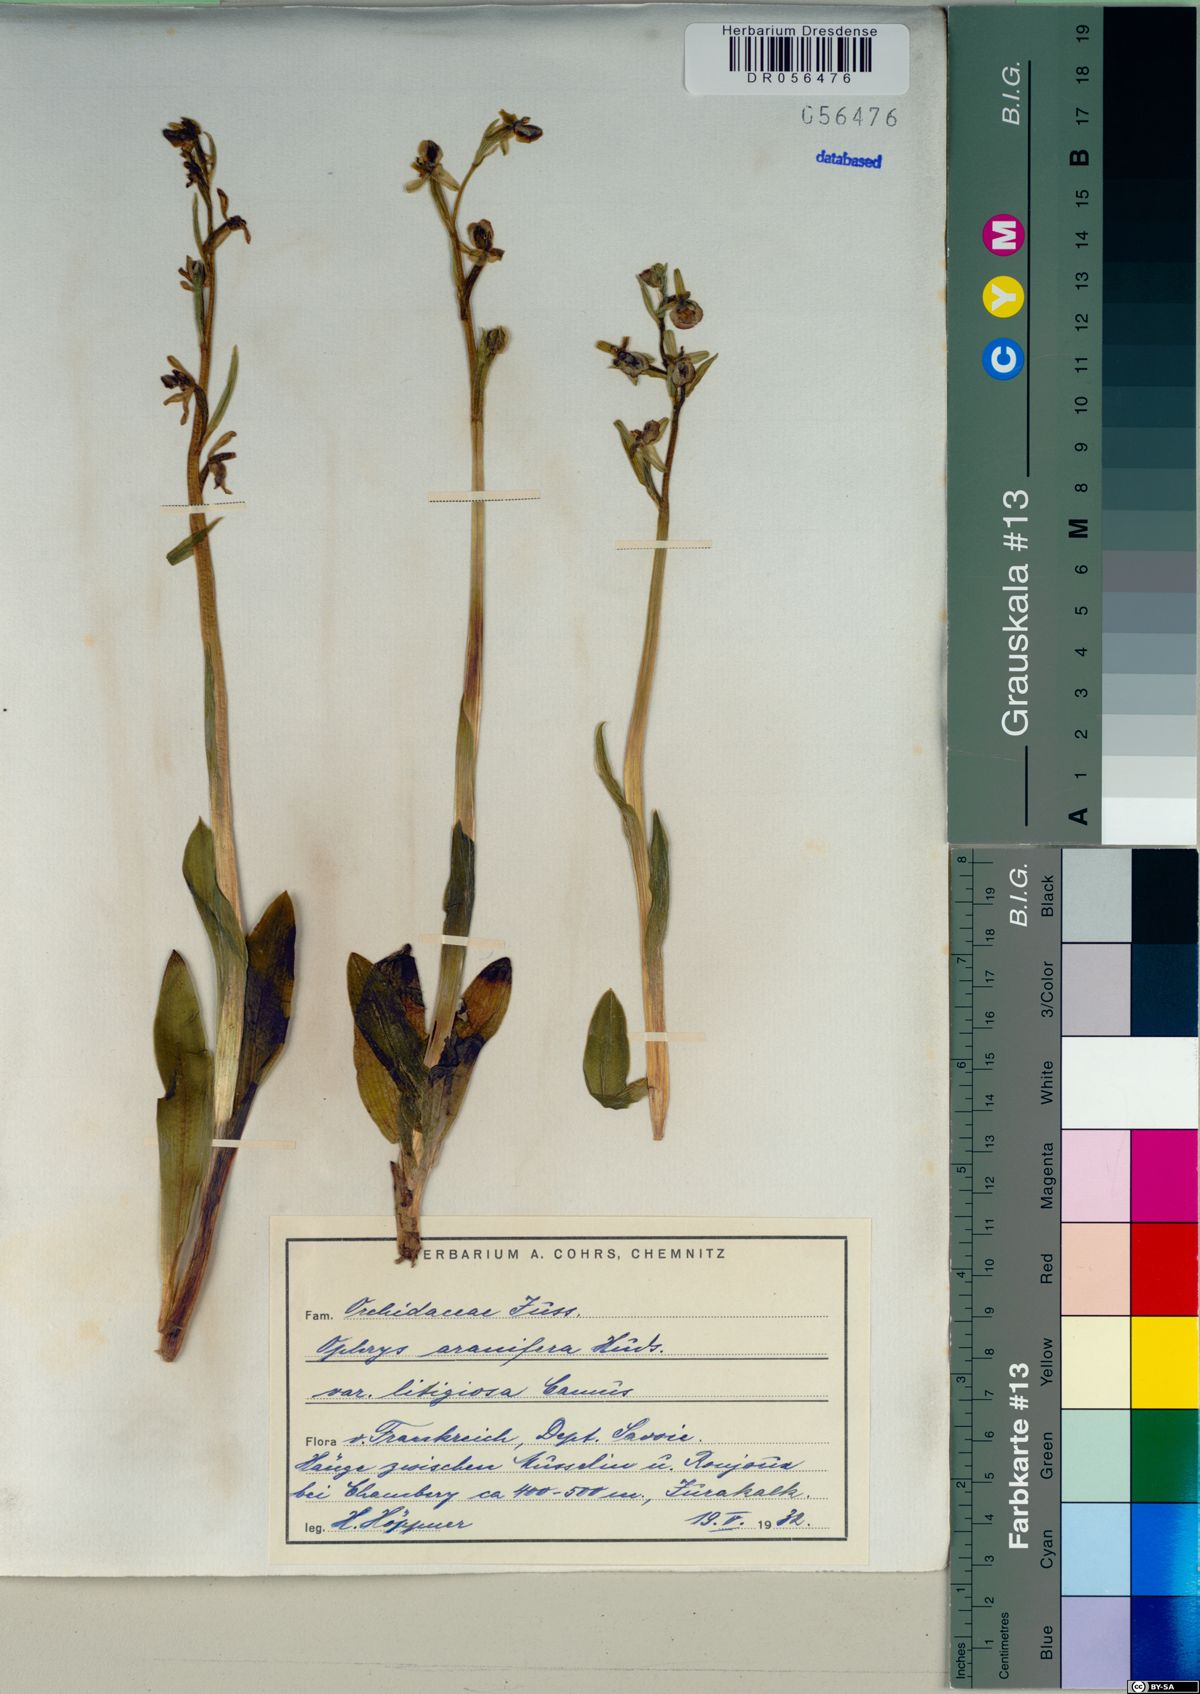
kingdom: Plantae
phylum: Tracheophyta
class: Liliopsida
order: Asparagales
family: Orchidaceae
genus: Ophrys
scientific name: Ophrys sphegodes
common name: Early spider-orchid
